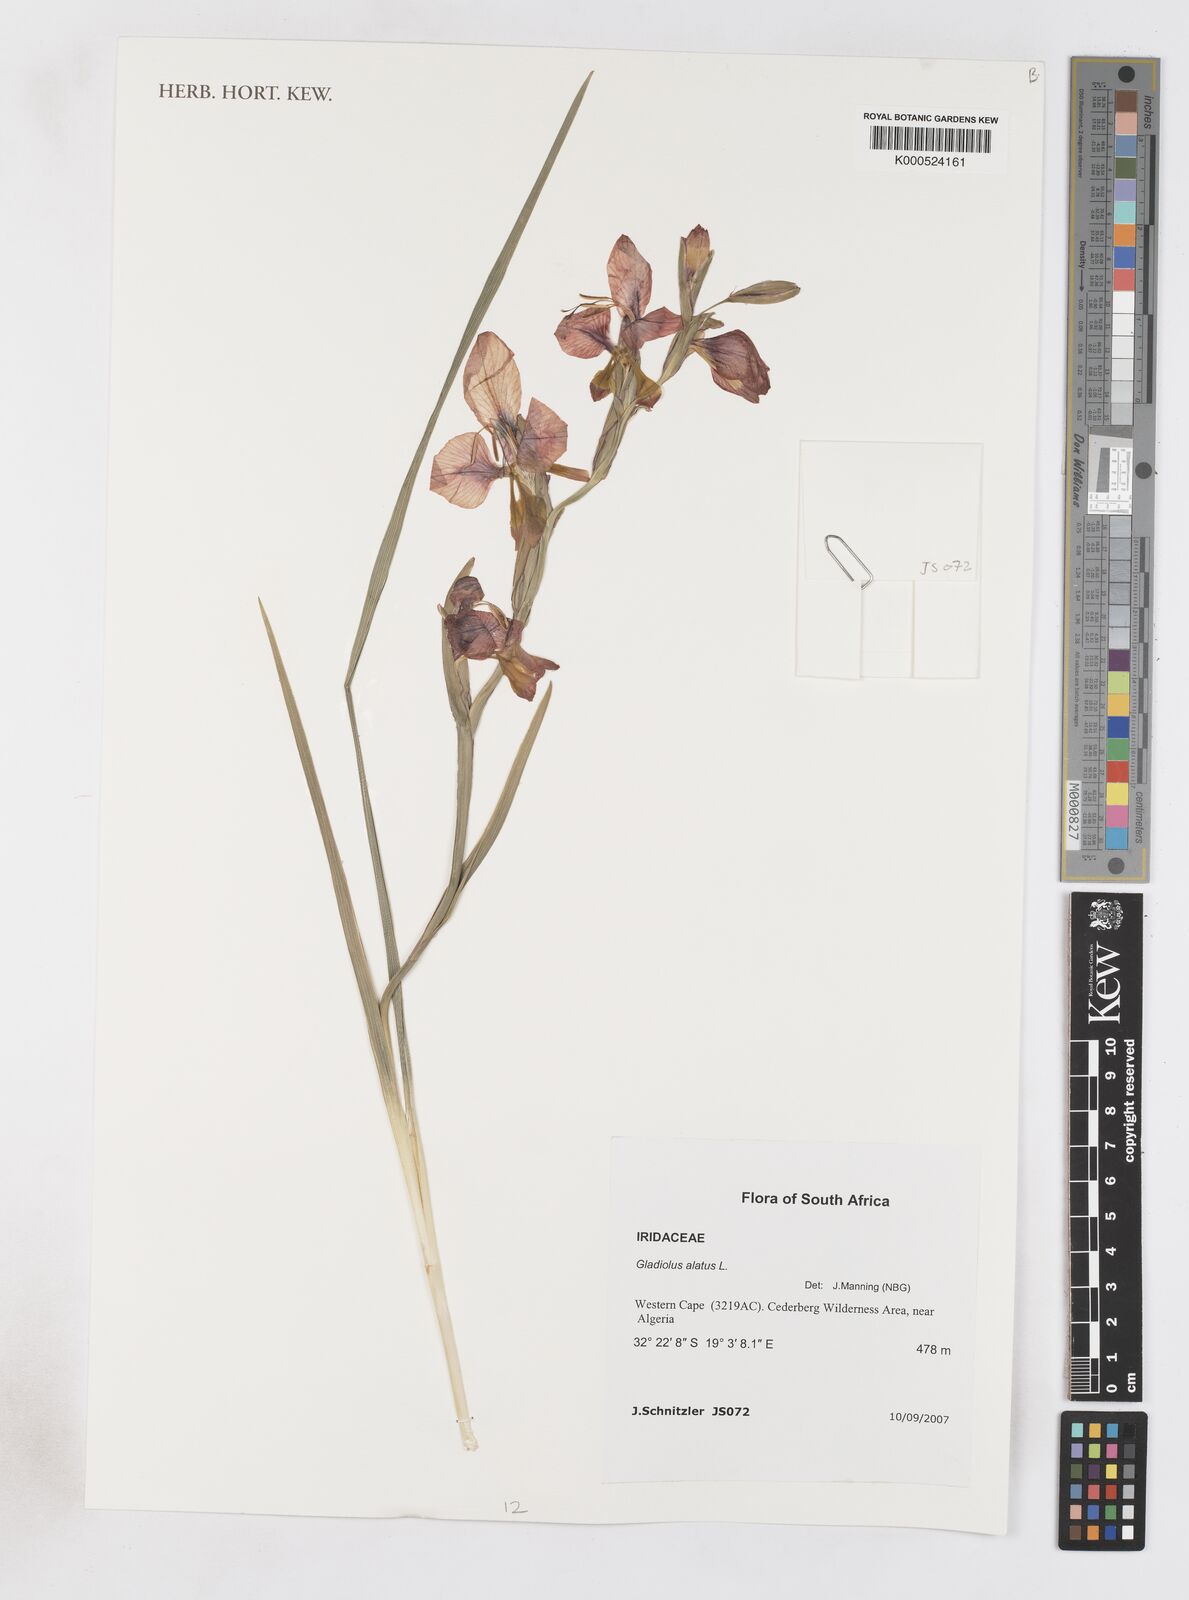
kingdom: Plantae
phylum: Tracheophyta
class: Liliopsida
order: Asparagales
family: Iridaceae
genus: Gladiolus
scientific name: Gladiolus alatus
